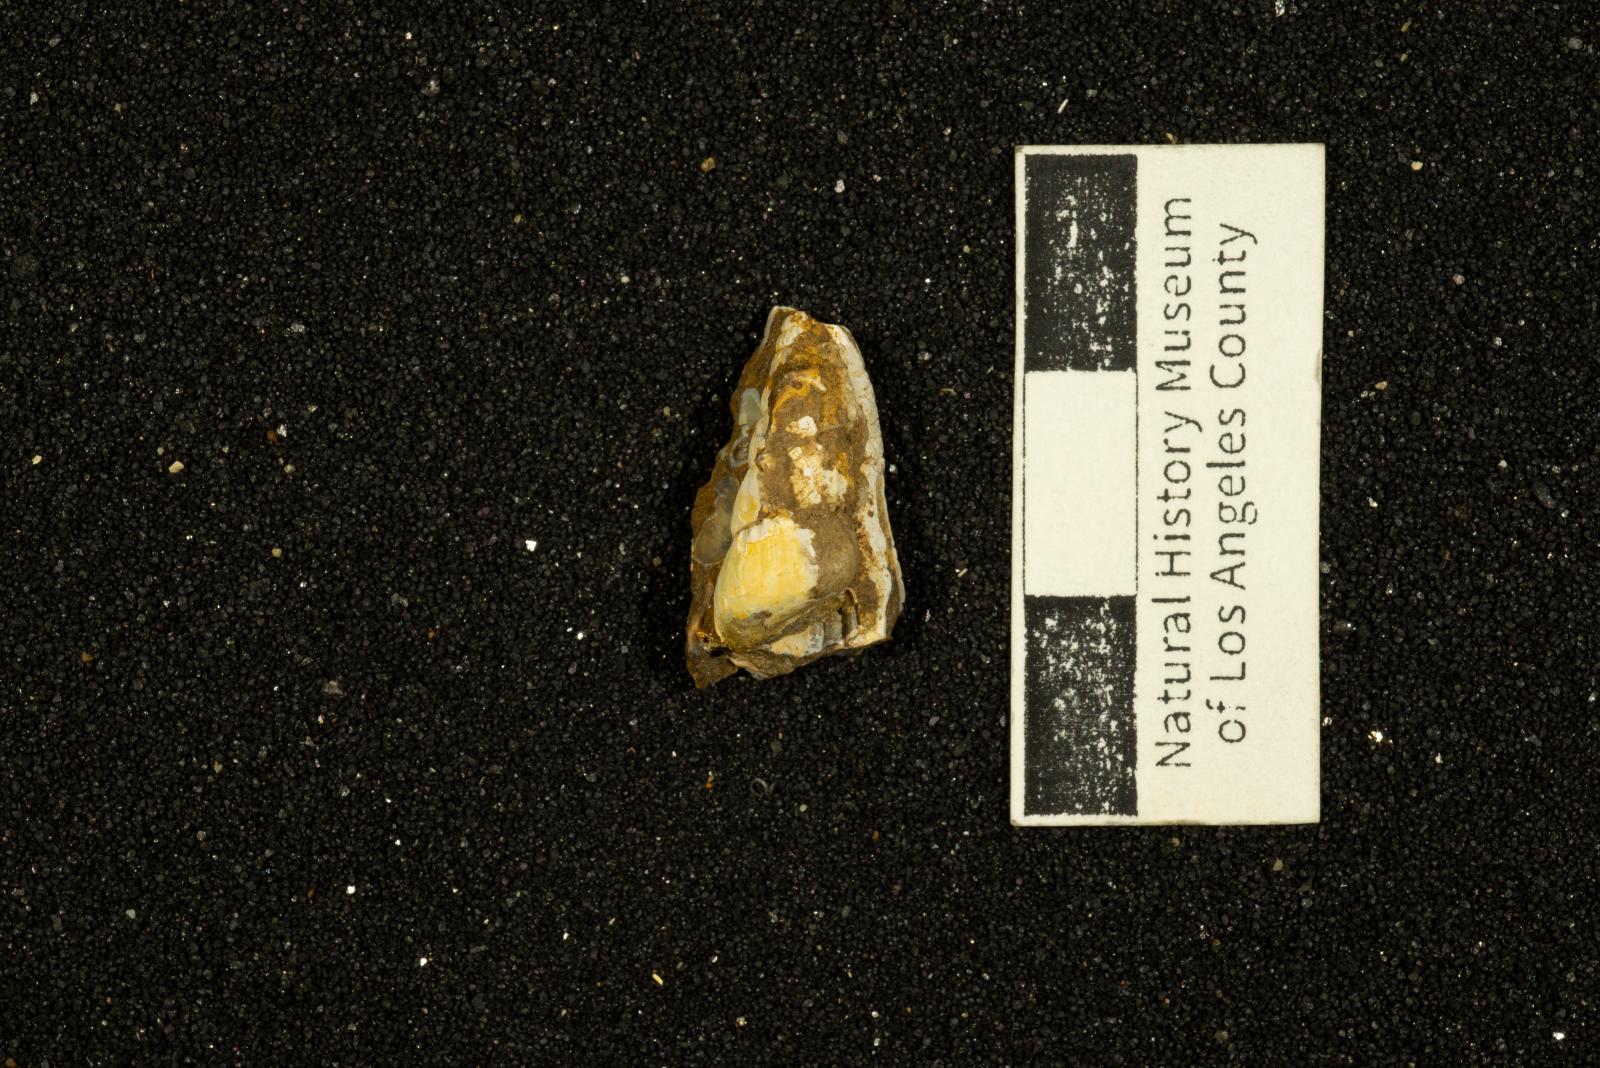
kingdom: Animalia
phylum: Mollusca
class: Gastropoda
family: Epitoniidae
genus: Amaea
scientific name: Amaea trifolia
